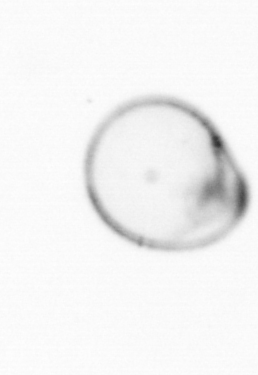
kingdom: Chromista
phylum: Myzozoa
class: Dinophyceae
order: Noctilucales
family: Noctilucaceae
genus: Noctiluca
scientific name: Noctiluca scintillans
